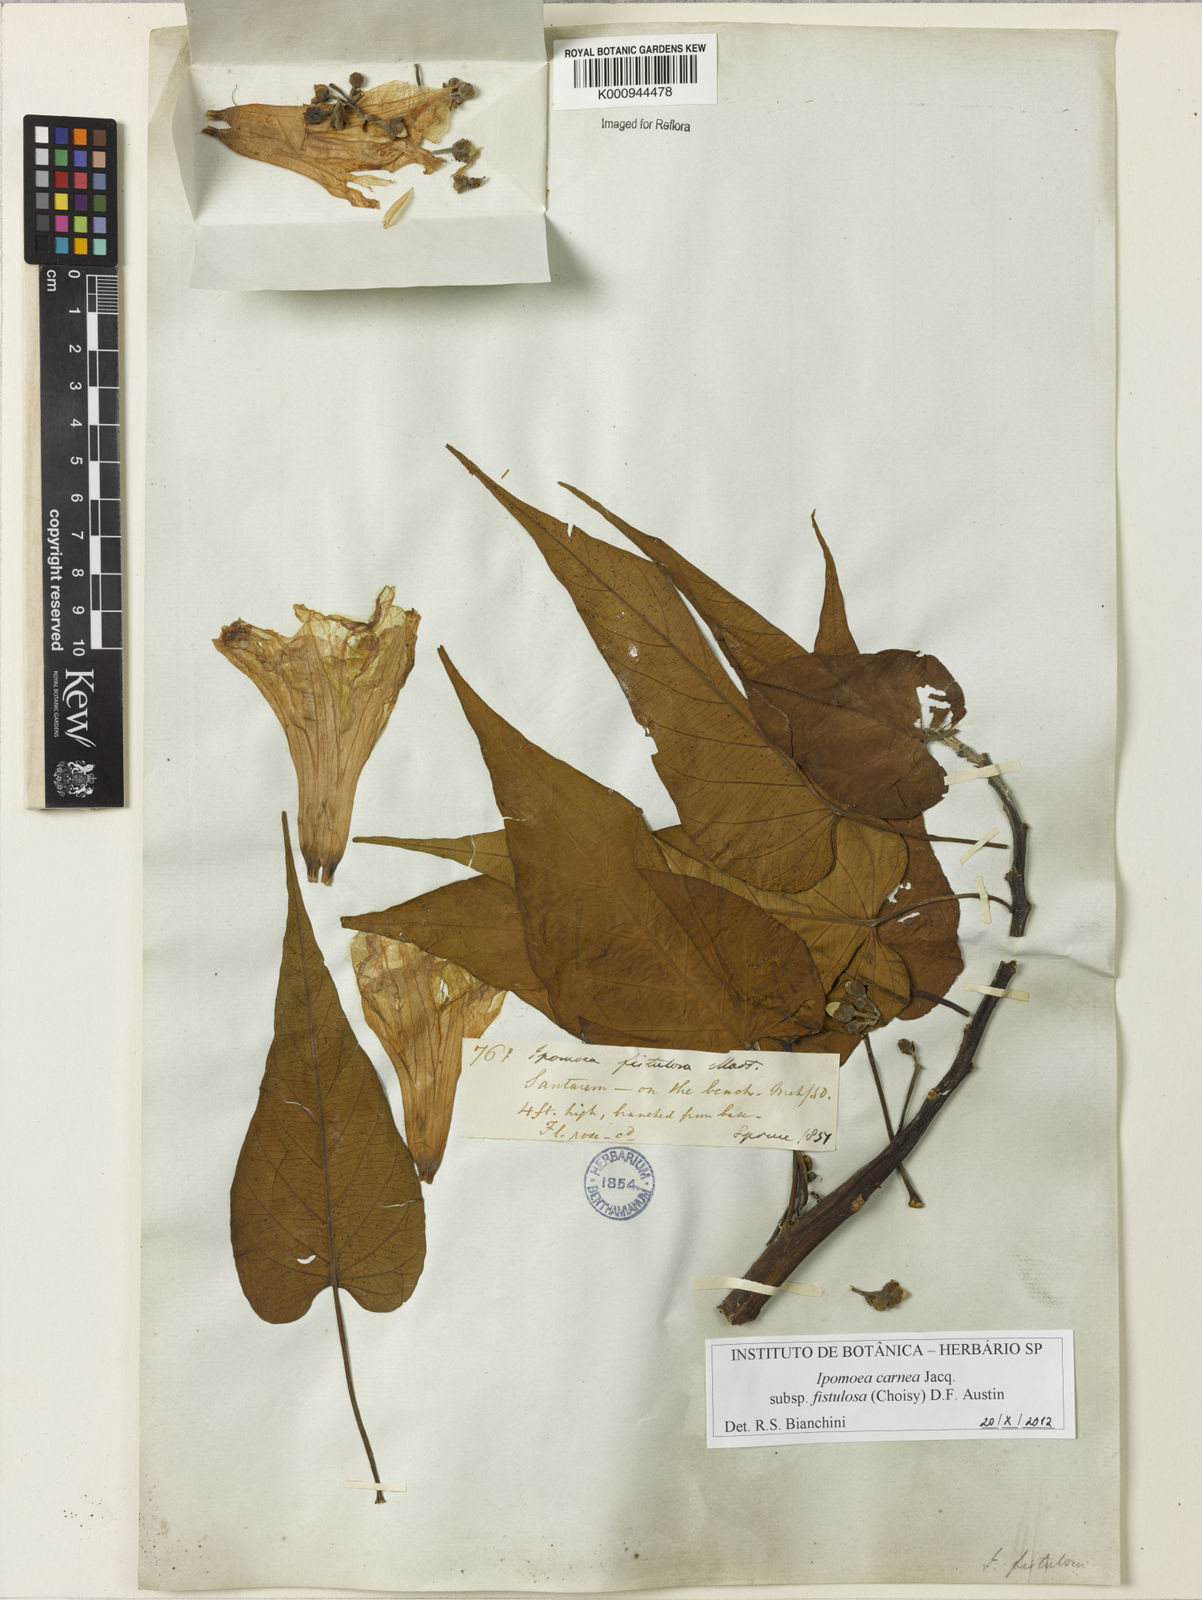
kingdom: Plantae
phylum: Tracheophyta
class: Magnoliopsida
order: Solanales
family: Convolvulaceae
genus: Ipomoea
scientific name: Ipomoea
